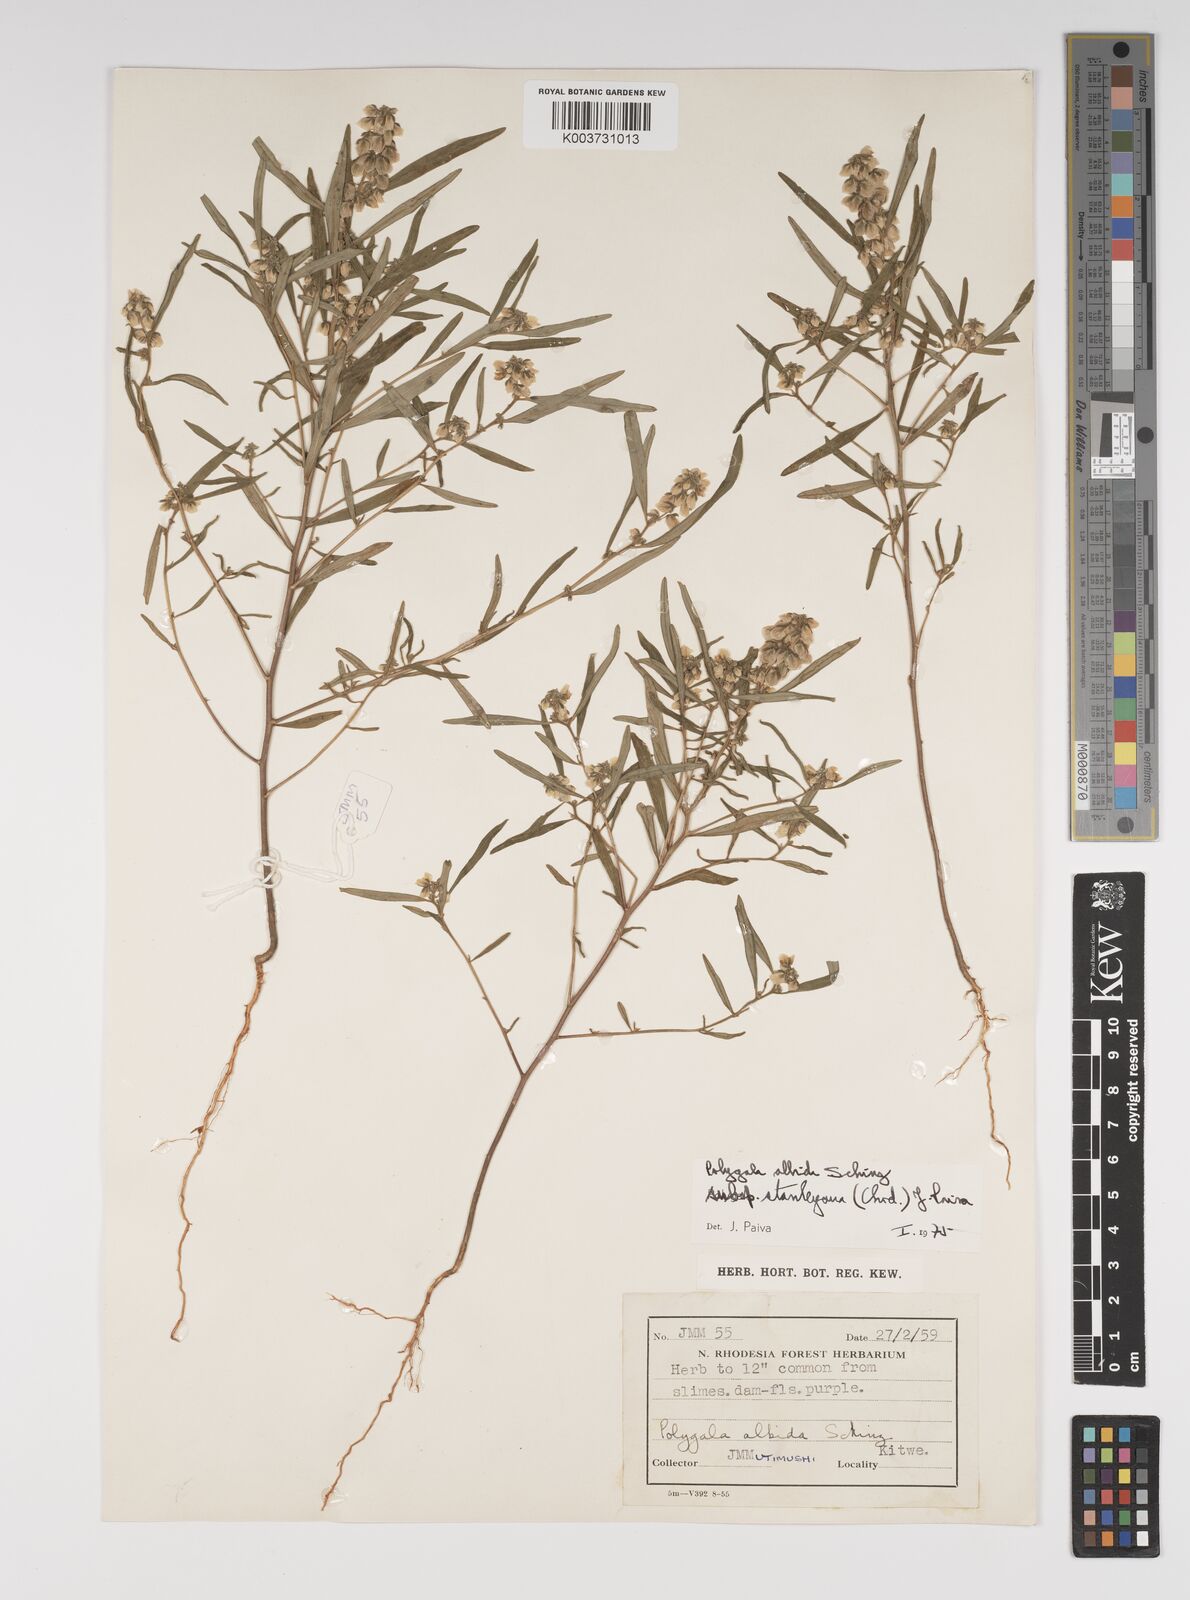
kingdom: Plantae
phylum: Tracheophyta
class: Magnoliopsida
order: Fabales
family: Polygalaceae
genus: Polygala
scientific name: Polygala albida
